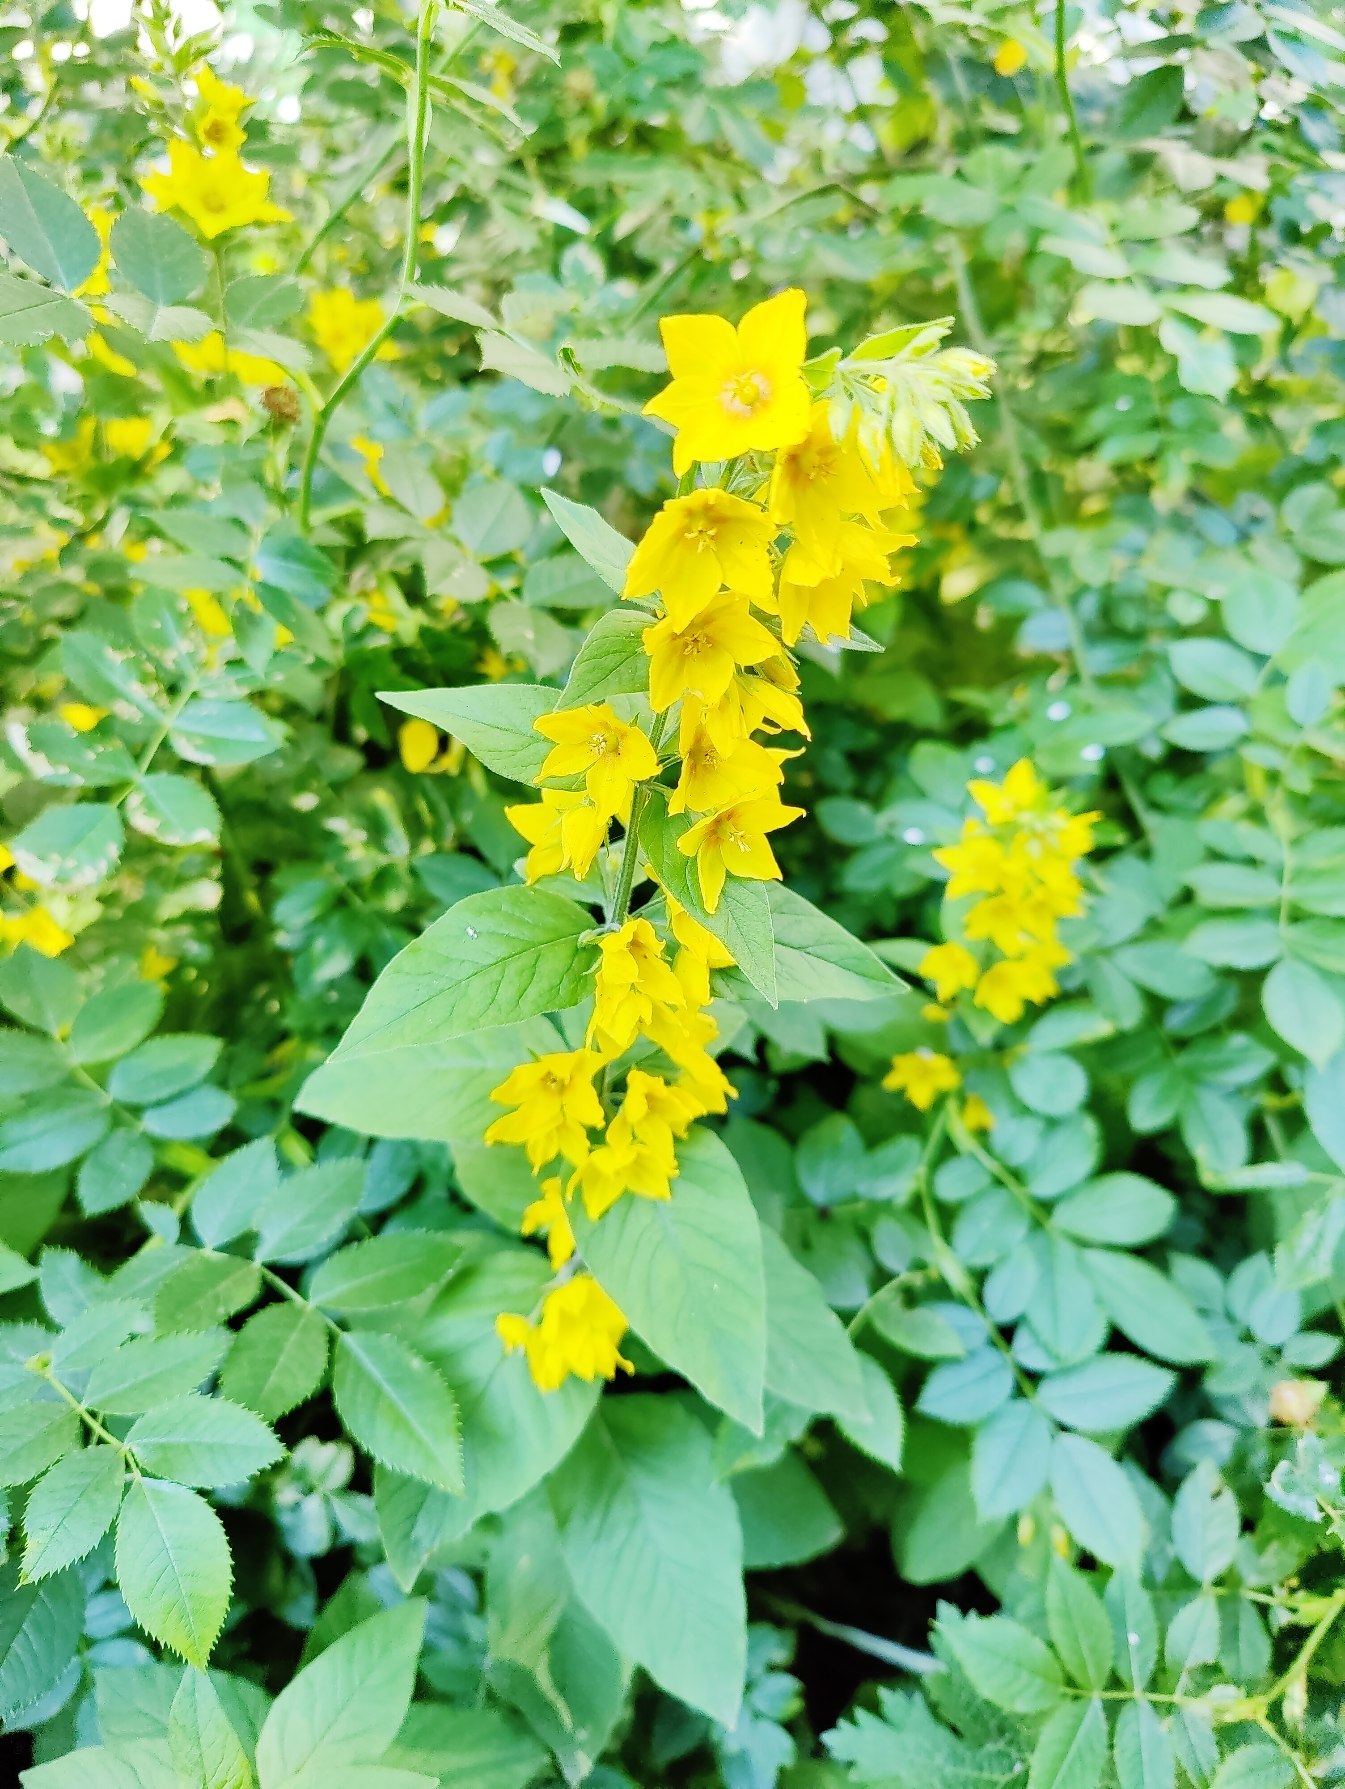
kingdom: Plantae
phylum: Tracheophyta
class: Magnoliopsida
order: Ericales
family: Primulaceae
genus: Lysimachia
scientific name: Lysimachia punctata
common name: Prikbladet fredløs
